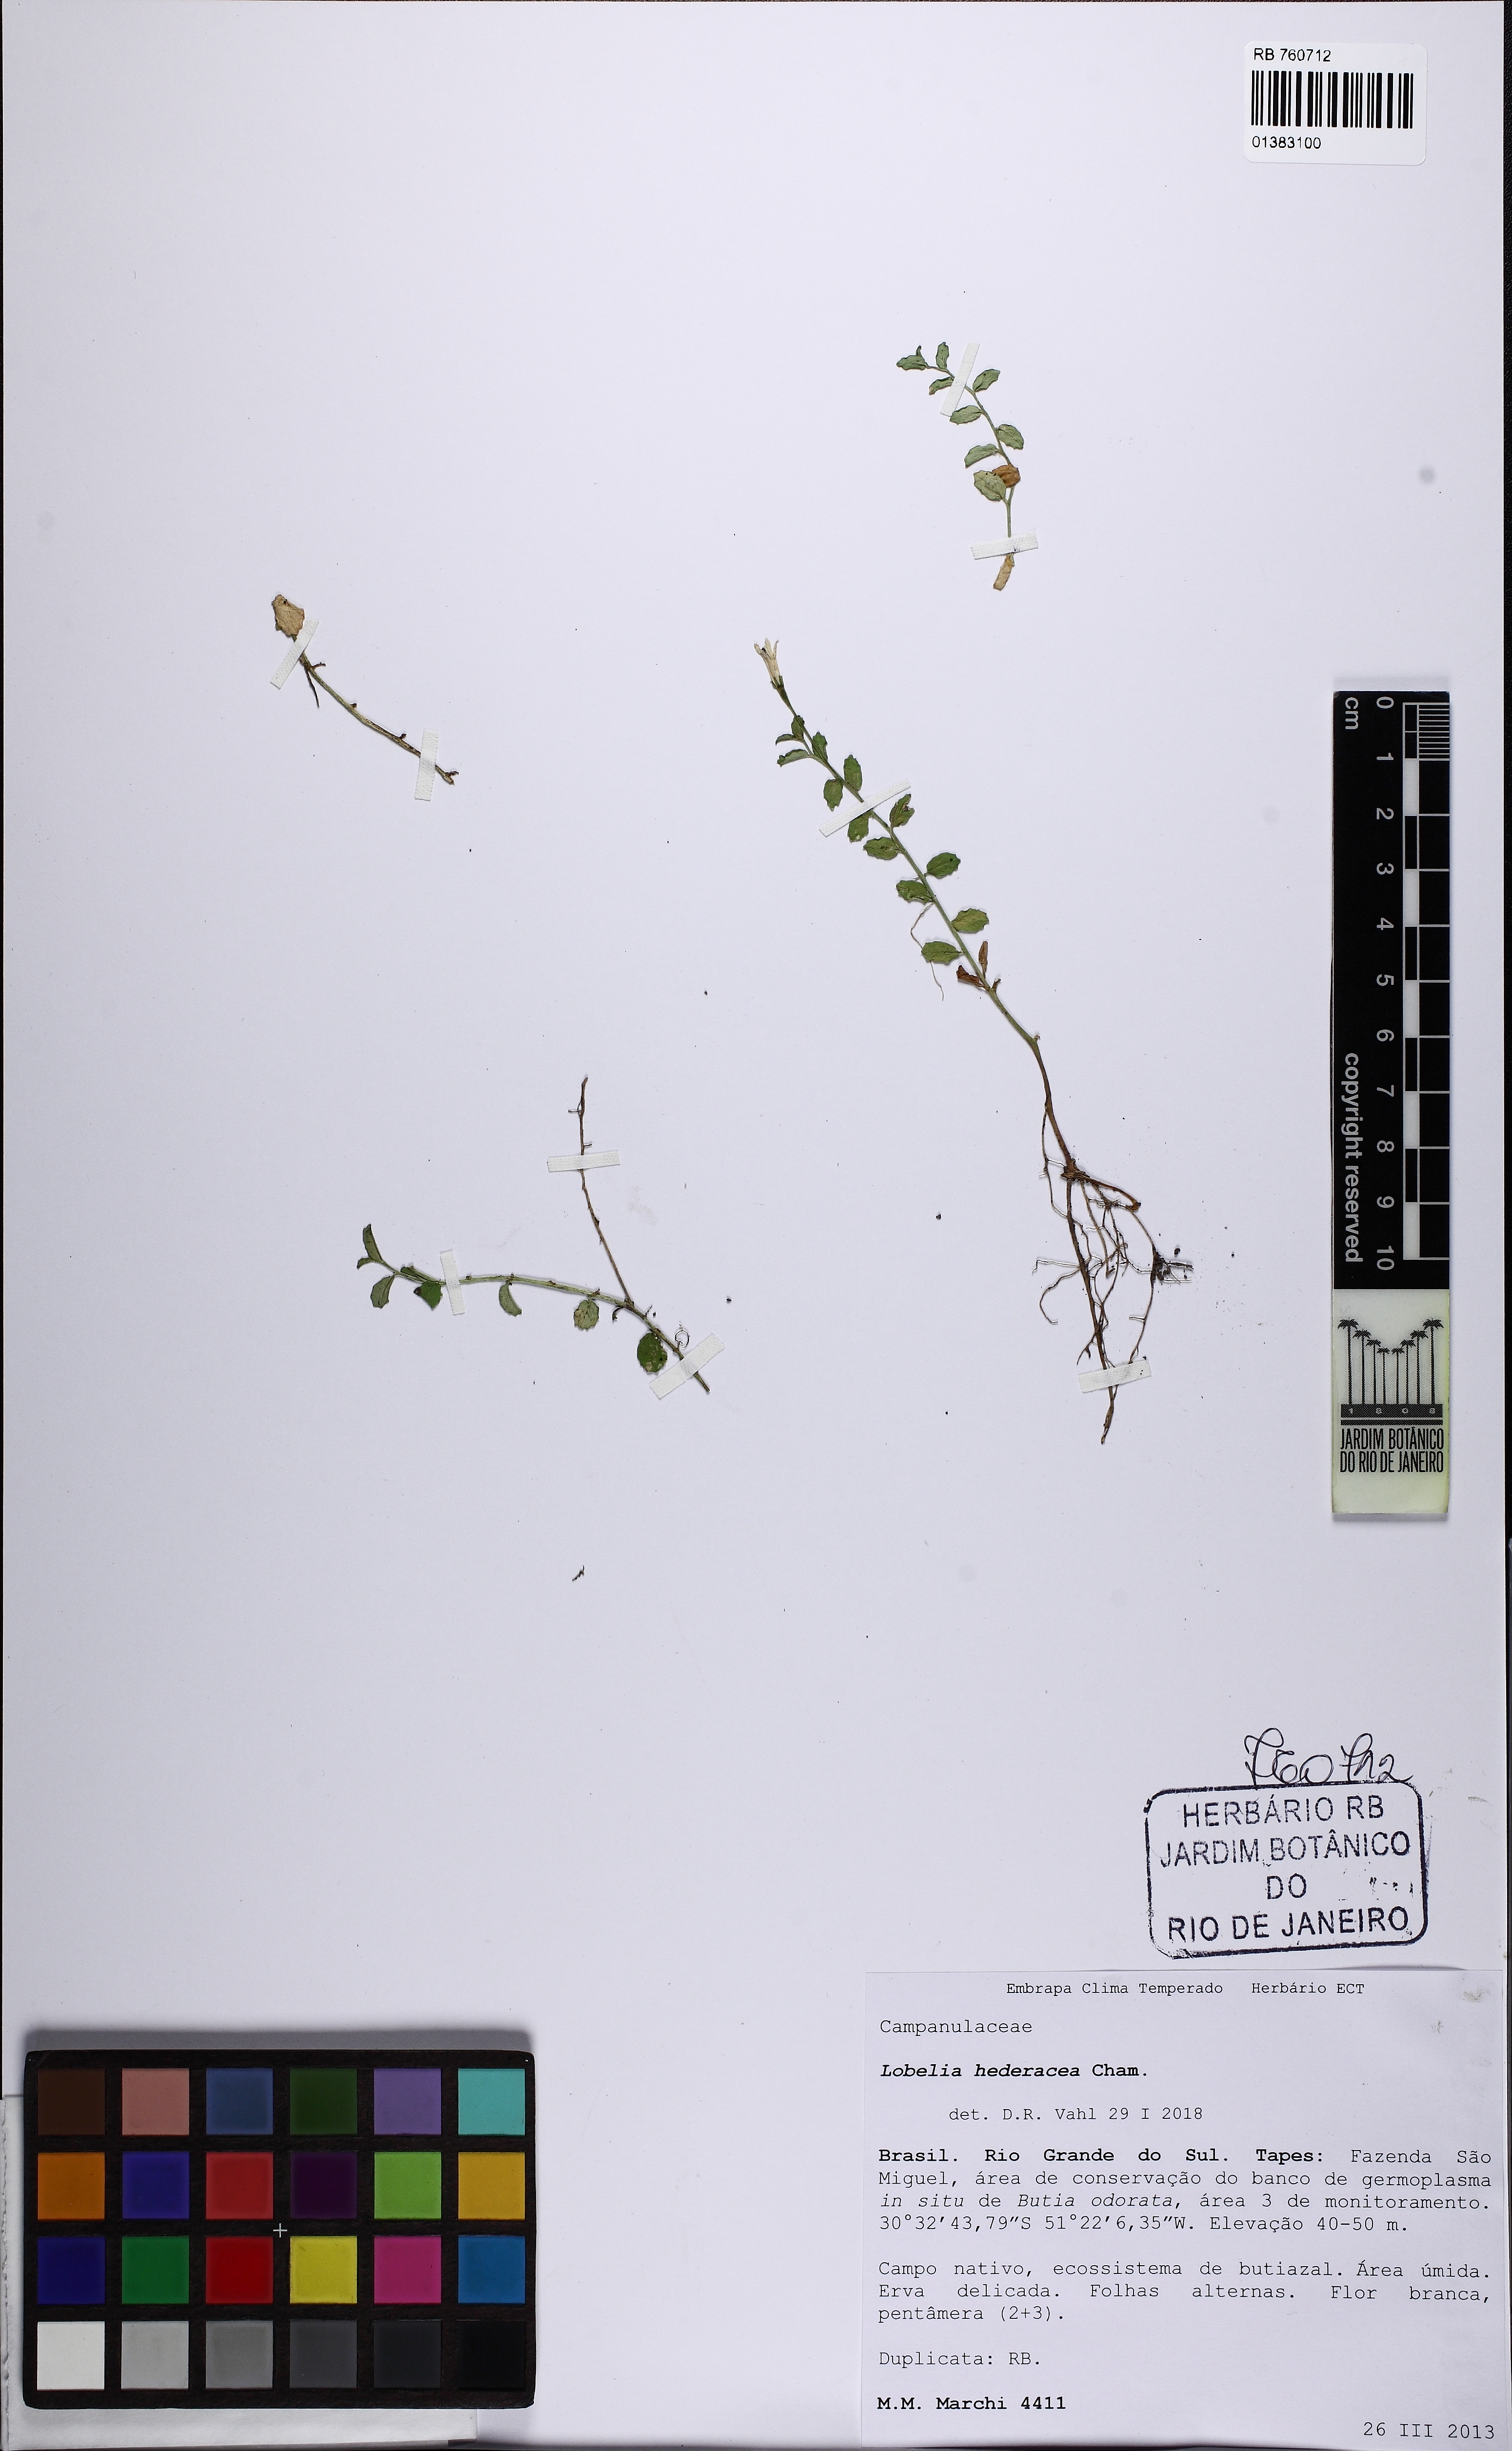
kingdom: Plantae
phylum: Tracheophyta
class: Magnoliopsida
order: Asterales
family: Campanulaceae
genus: Lobelia
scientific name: Lobelia hederacea
